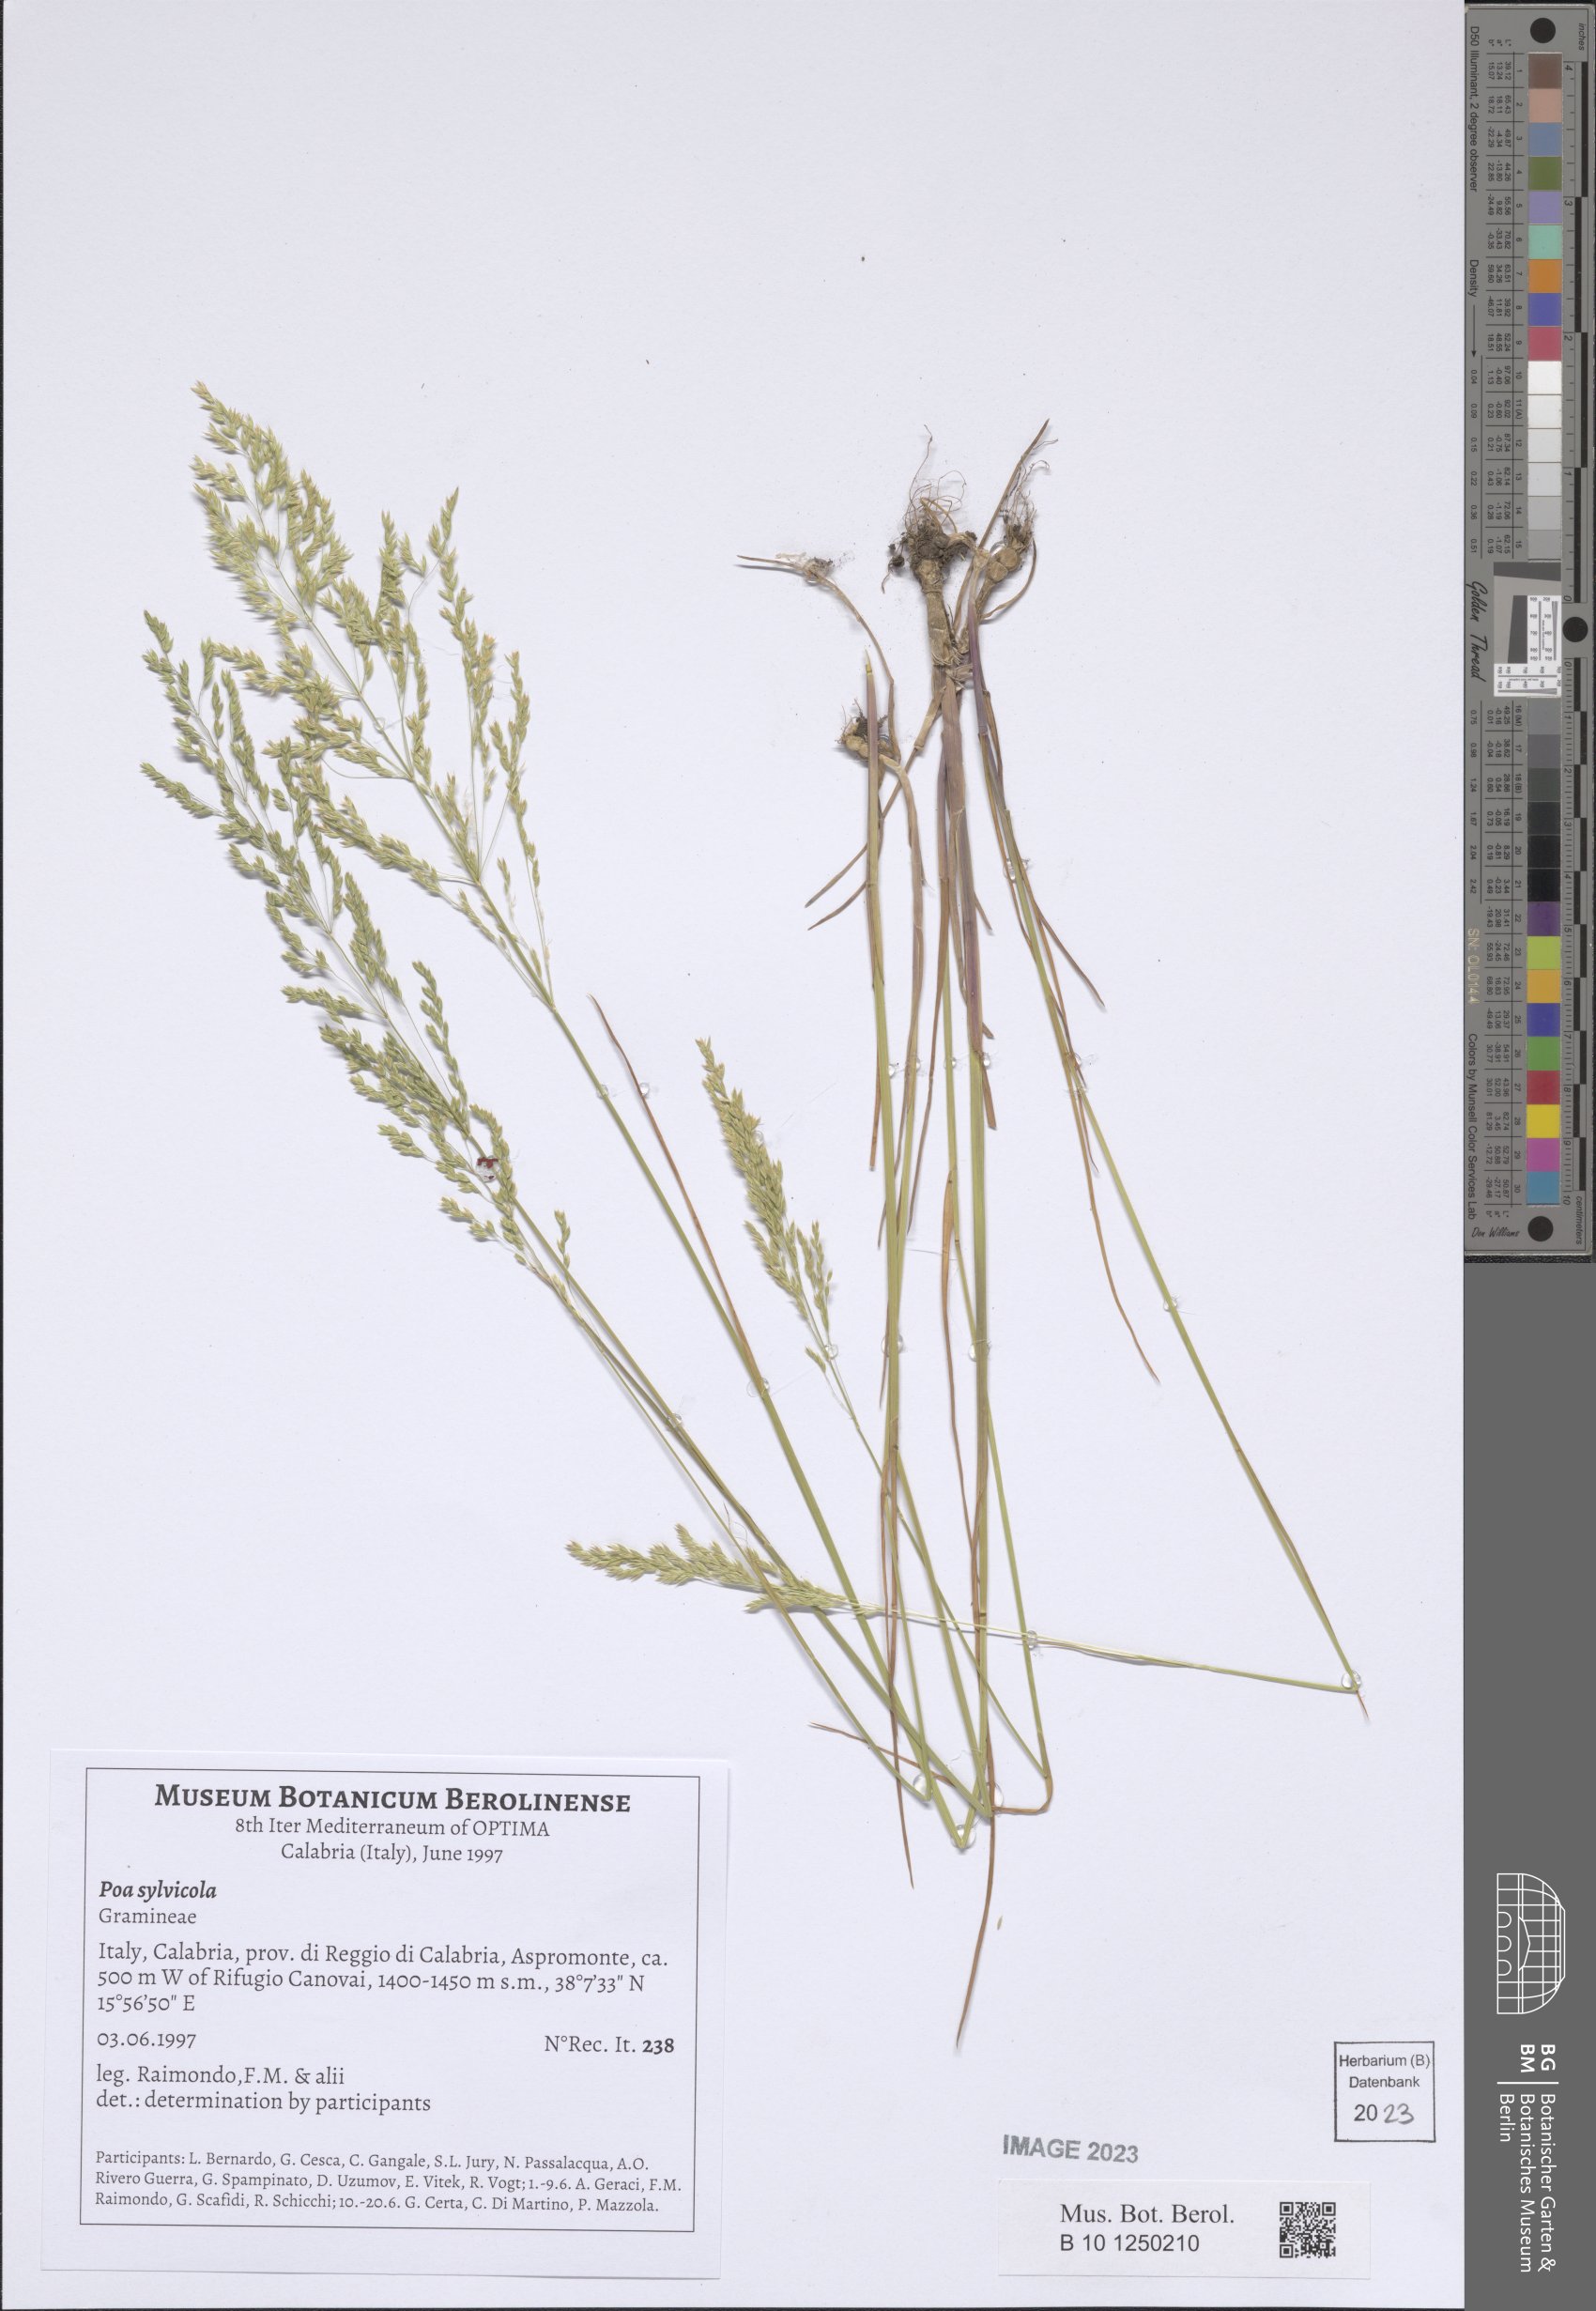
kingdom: Plantae
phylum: Tracheophyta
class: Liliopsida
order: Poales
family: Poaceae
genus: Poa
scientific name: Poa trivialis
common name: Rough bluegrass
